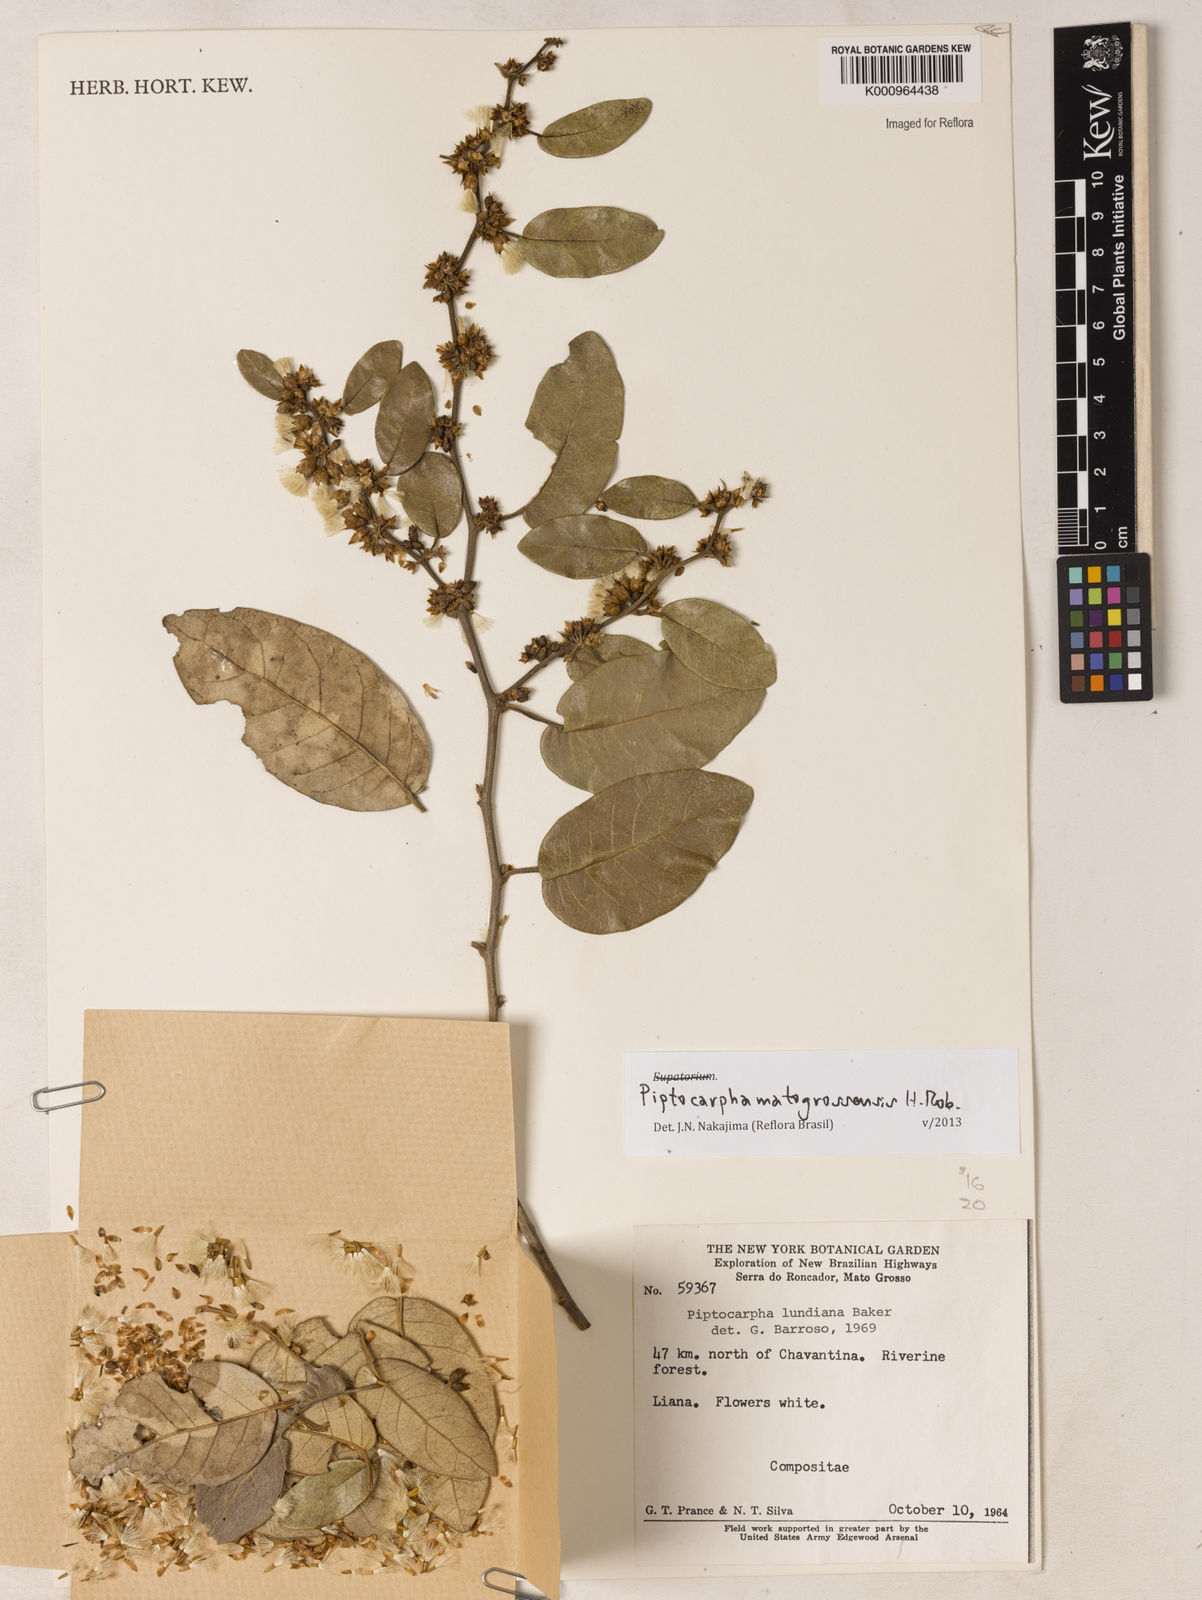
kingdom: Plantae
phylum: Tracheophyta
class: Magnoliopsida
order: Asterales
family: Asteraceae
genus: Piptocarpha
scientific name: Piptocarpha matogrossensis
